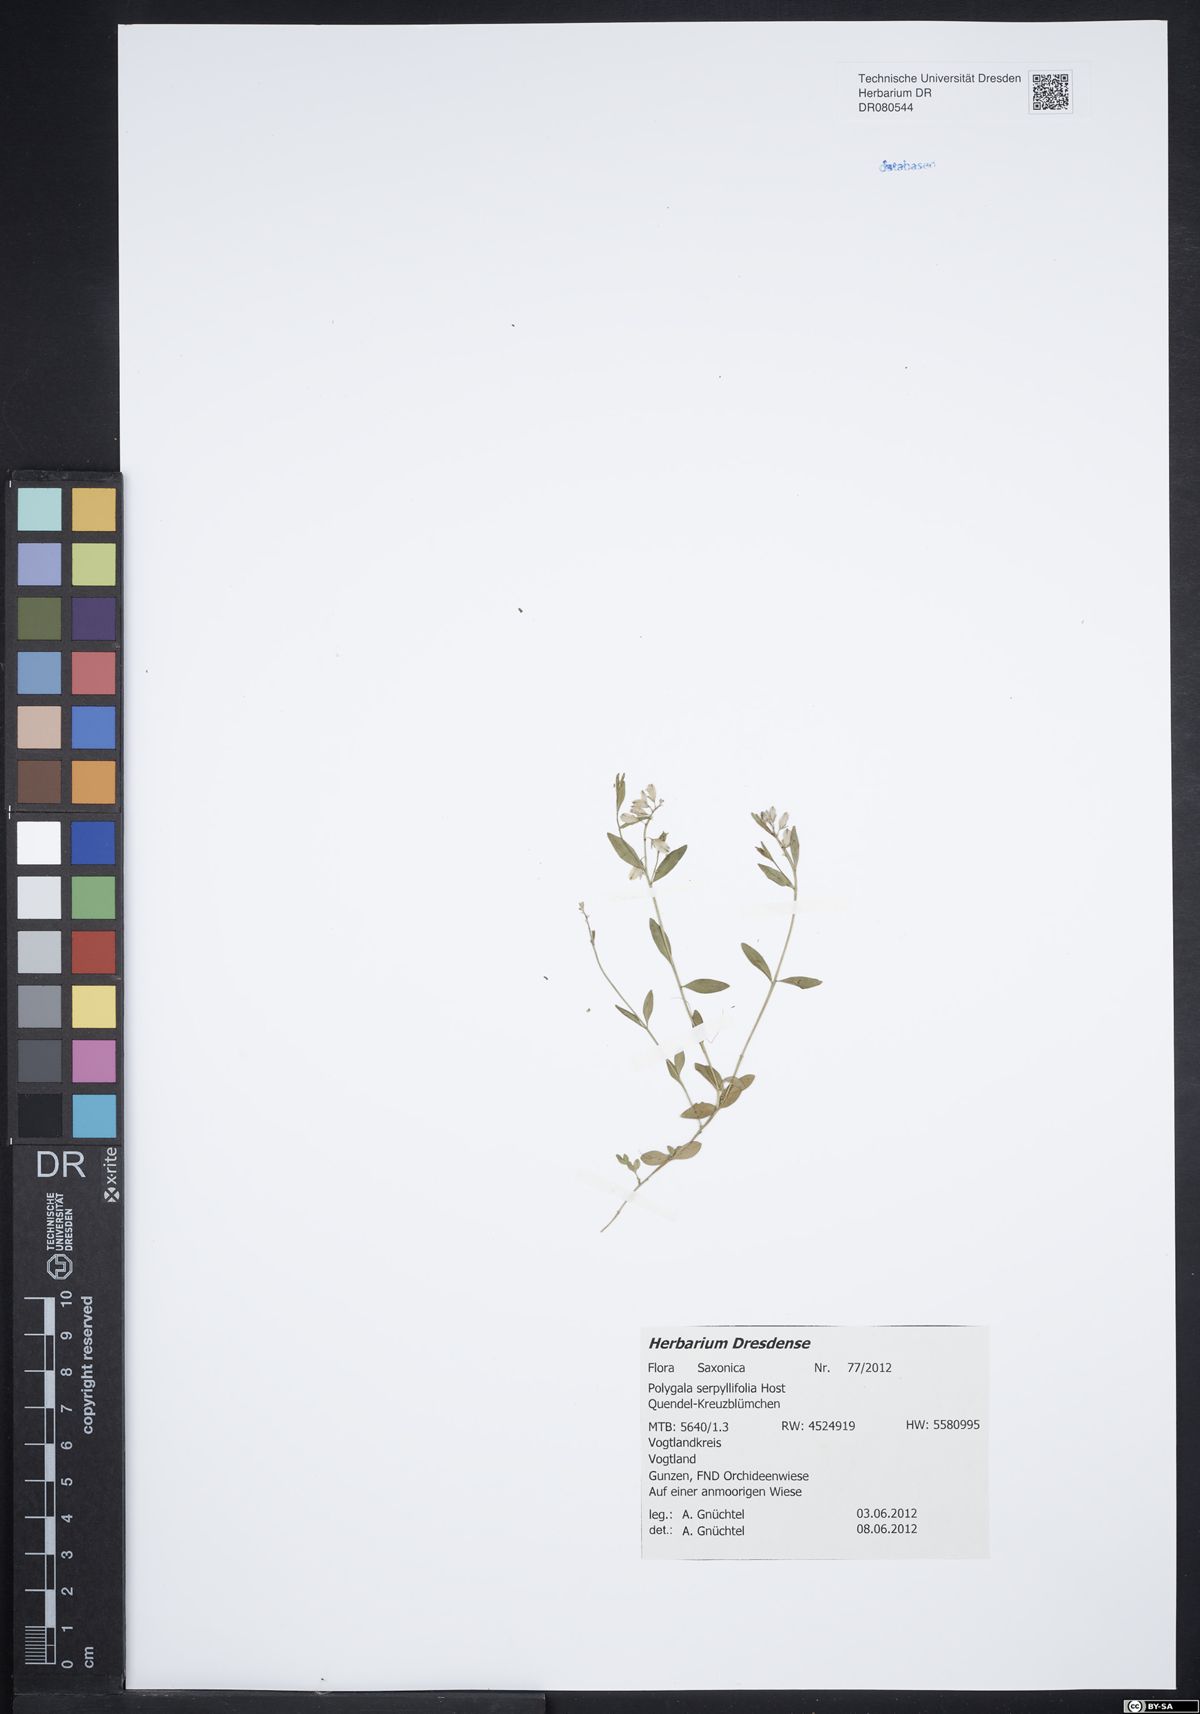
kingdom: Plantae
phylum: Tracheophyta
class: Magnoliopsida
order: Fabales
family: Polygalaceae
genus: Polygala
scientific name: Polygala serpyllifolia
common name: Heath milkwort
